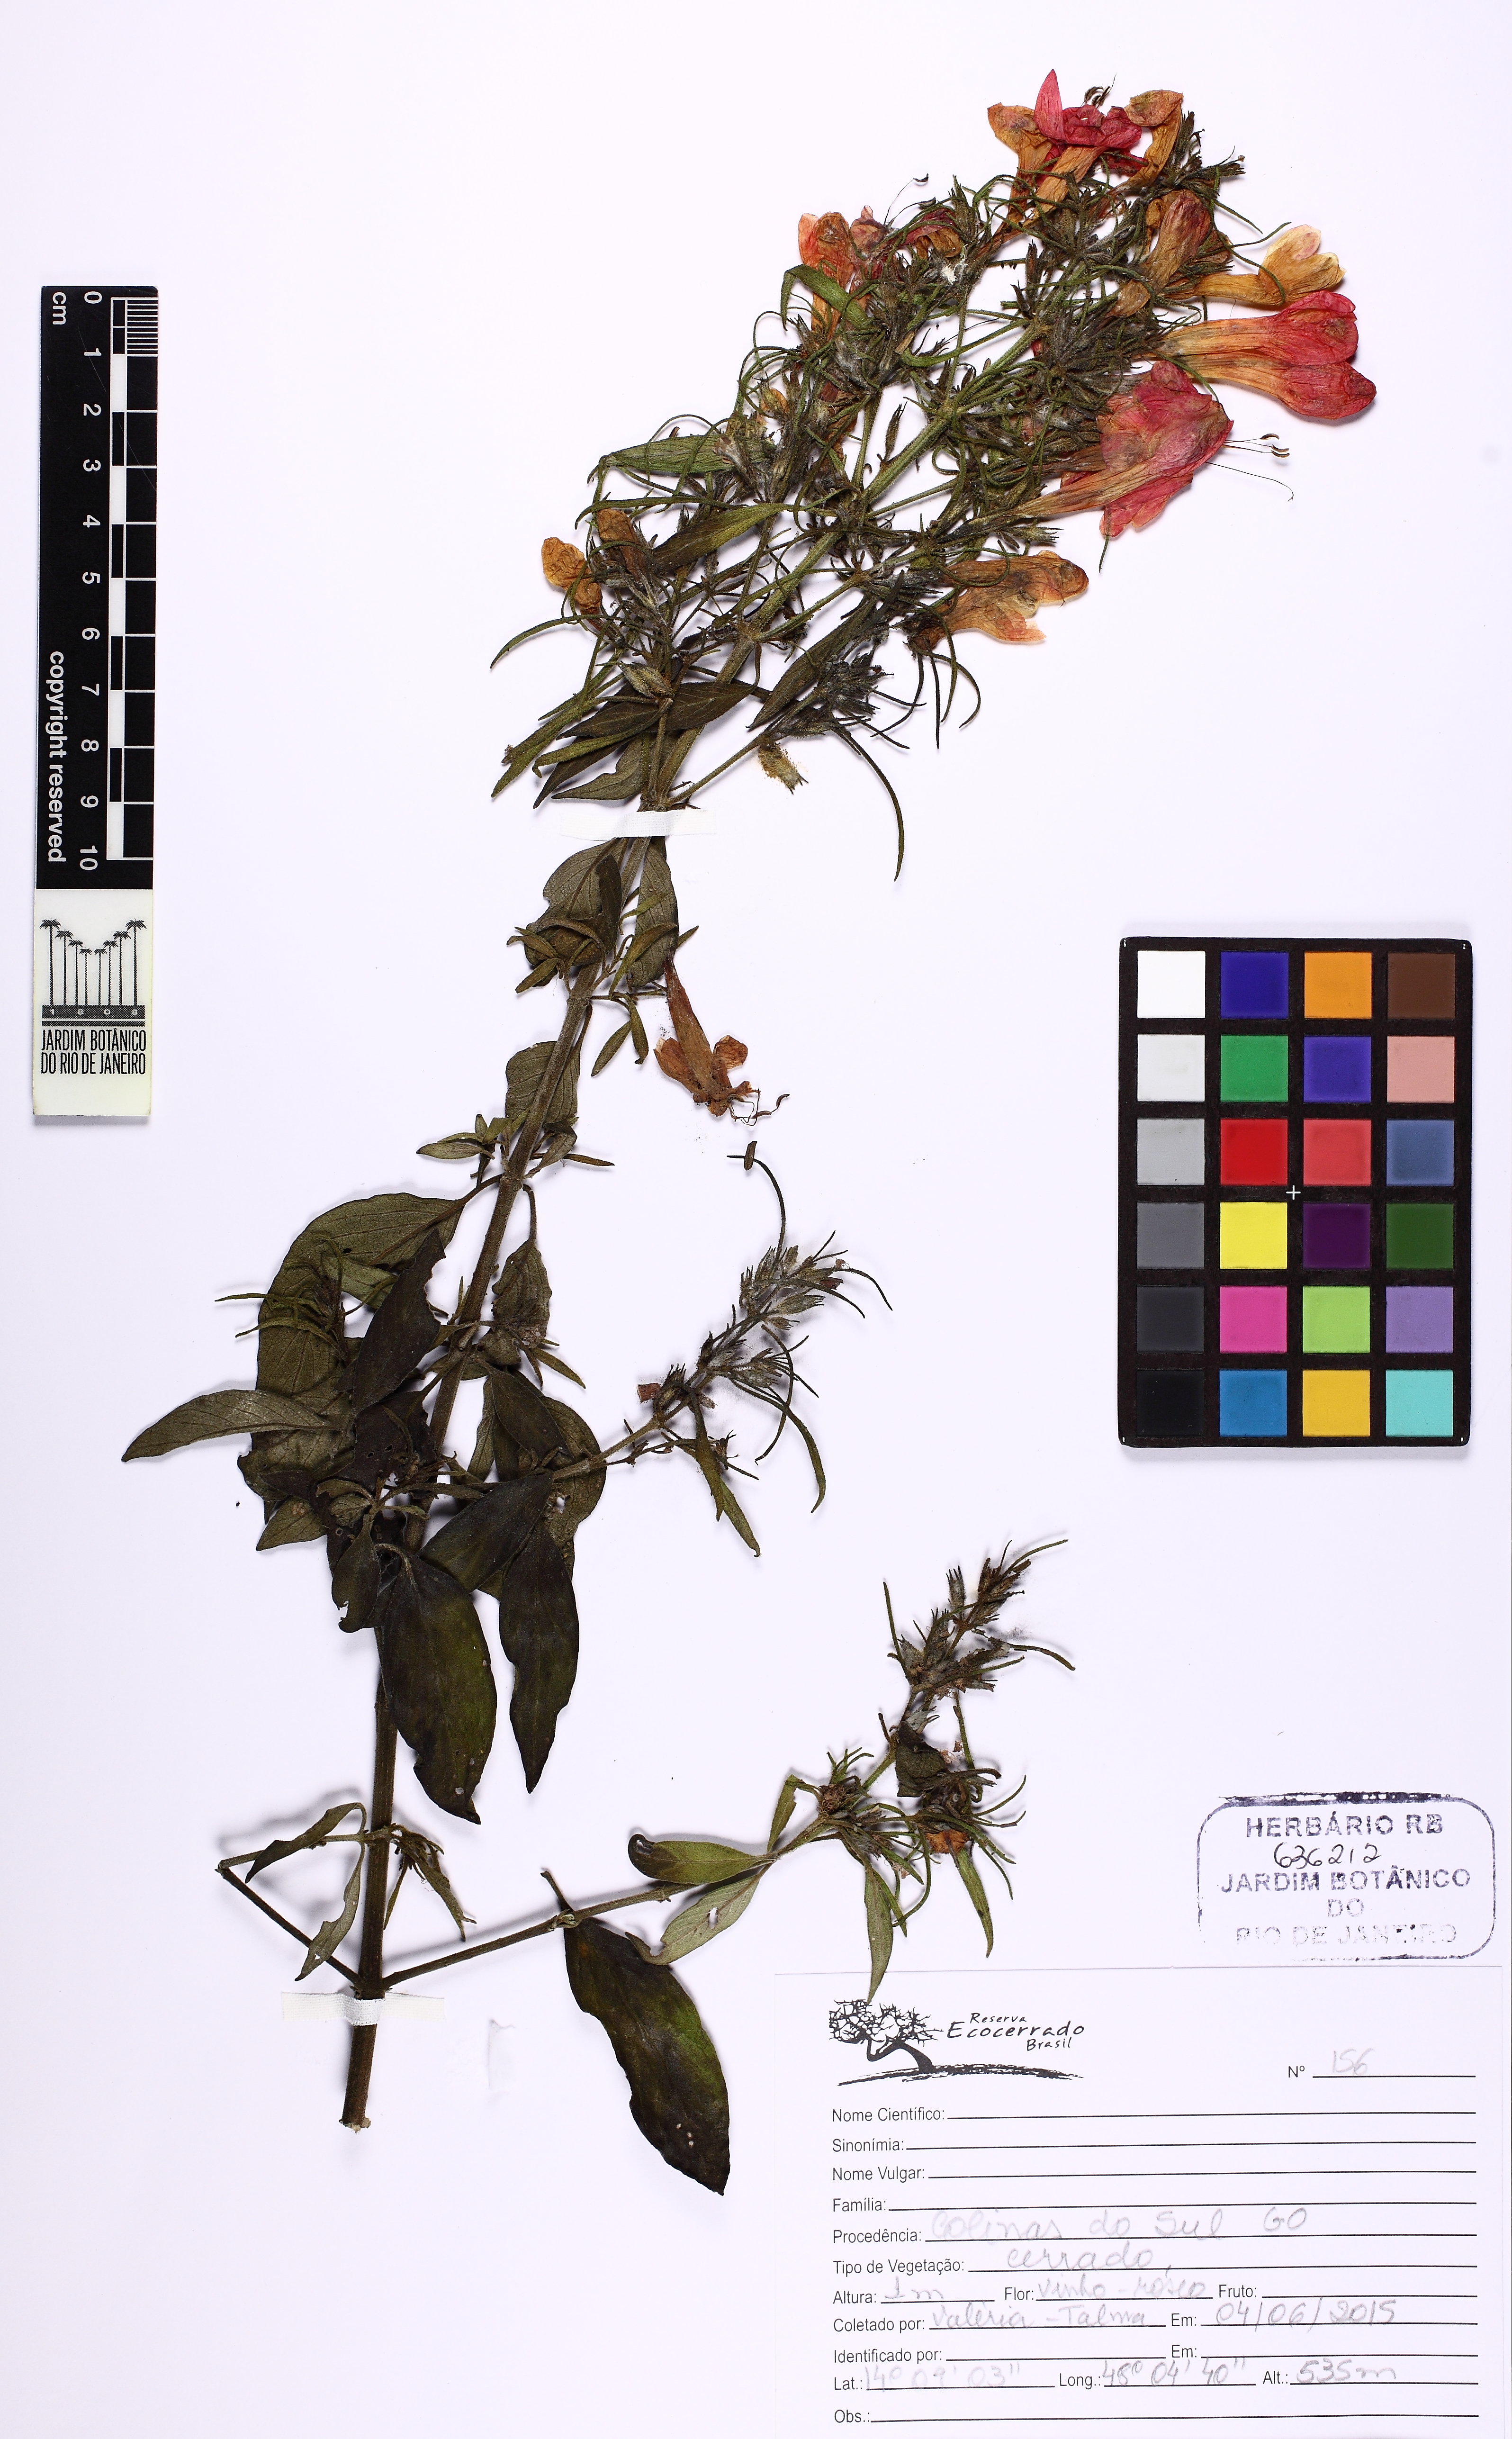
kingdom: Plantae
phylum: Tracheophyta
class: Magnoliopsida
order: Lamiales
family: Acanthaceae
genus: Ruellia
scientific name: Ruellia salviifolia
